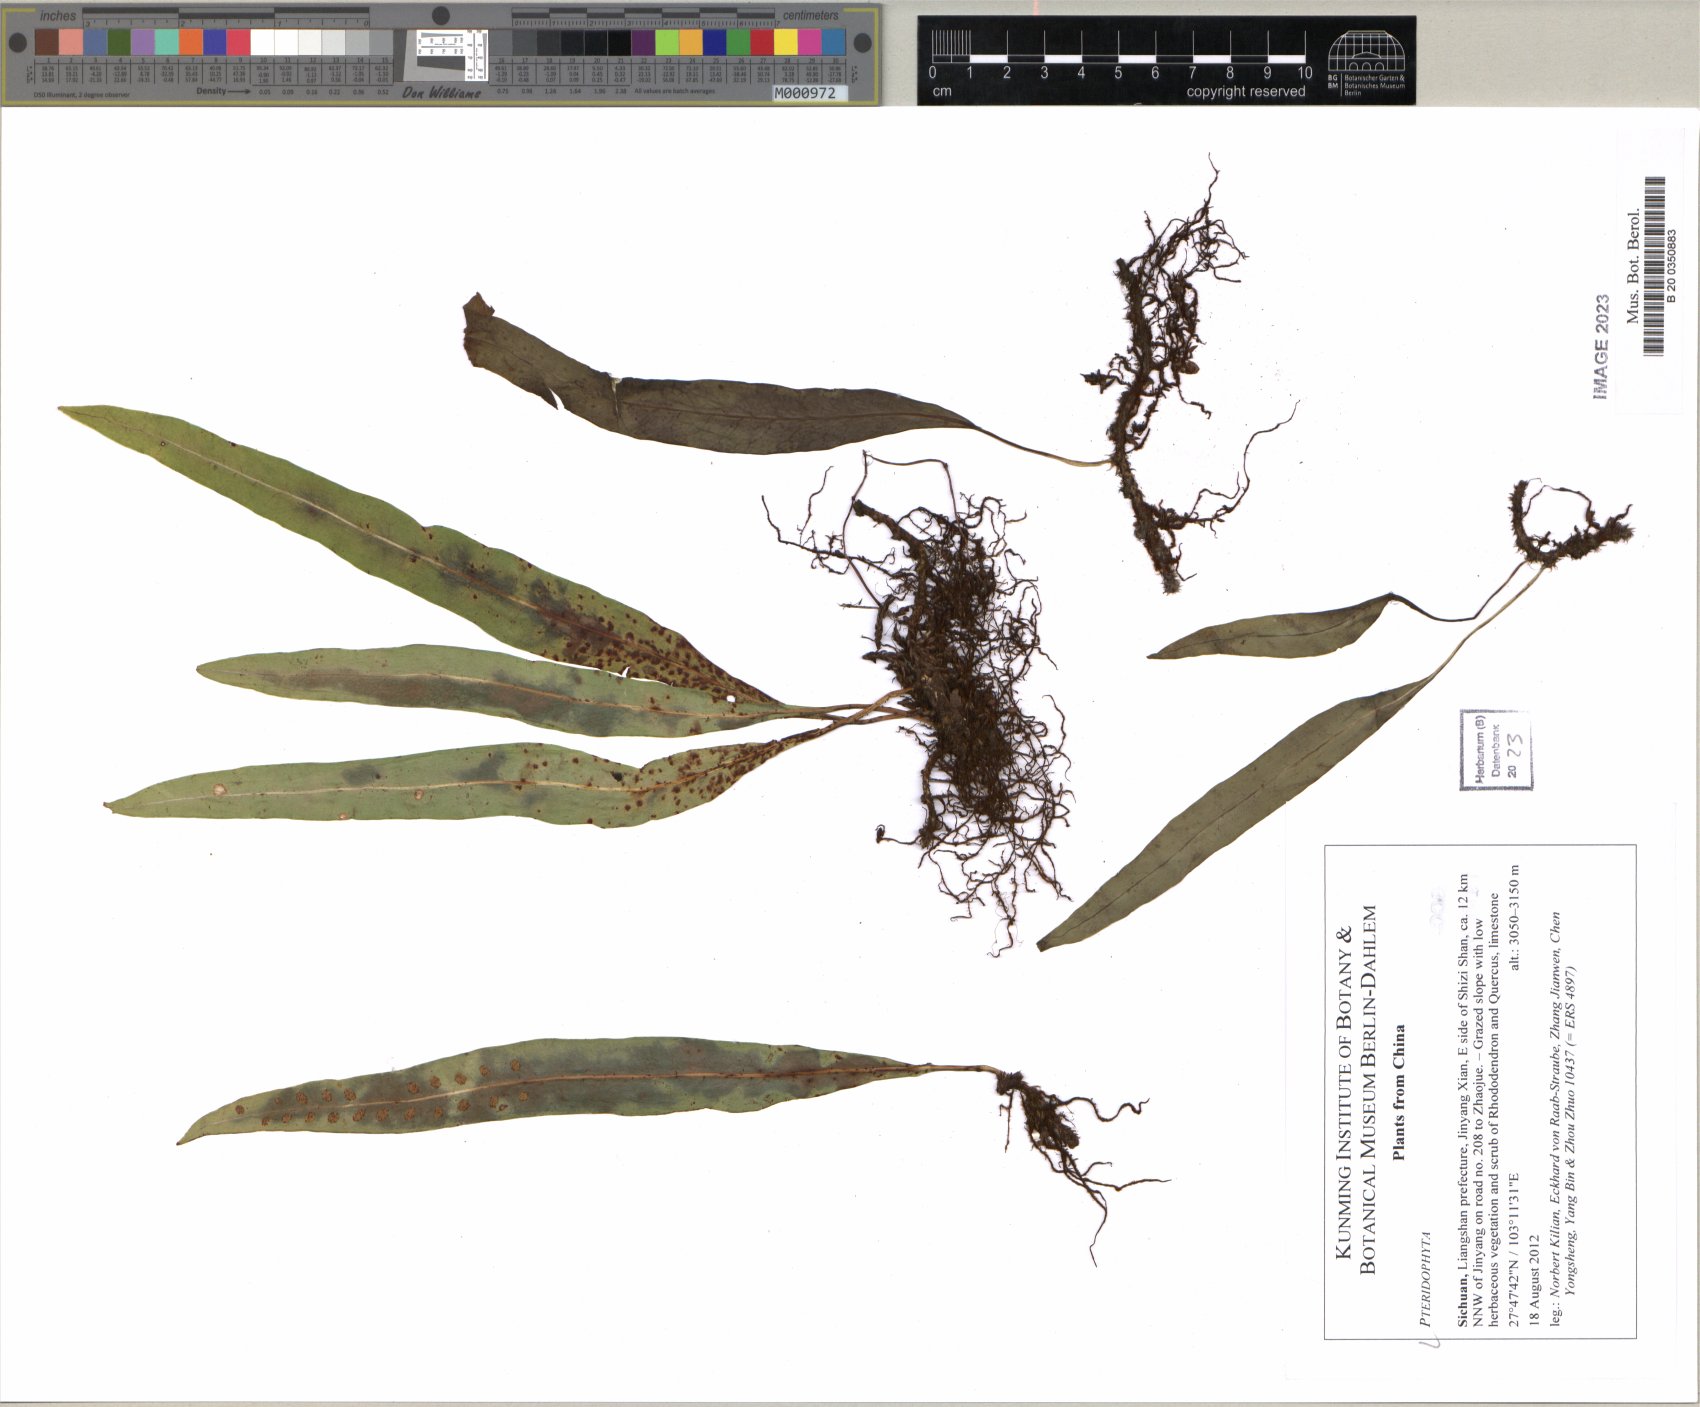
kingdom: Plantae
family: Pteridophyta
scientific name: Pteridophyta
